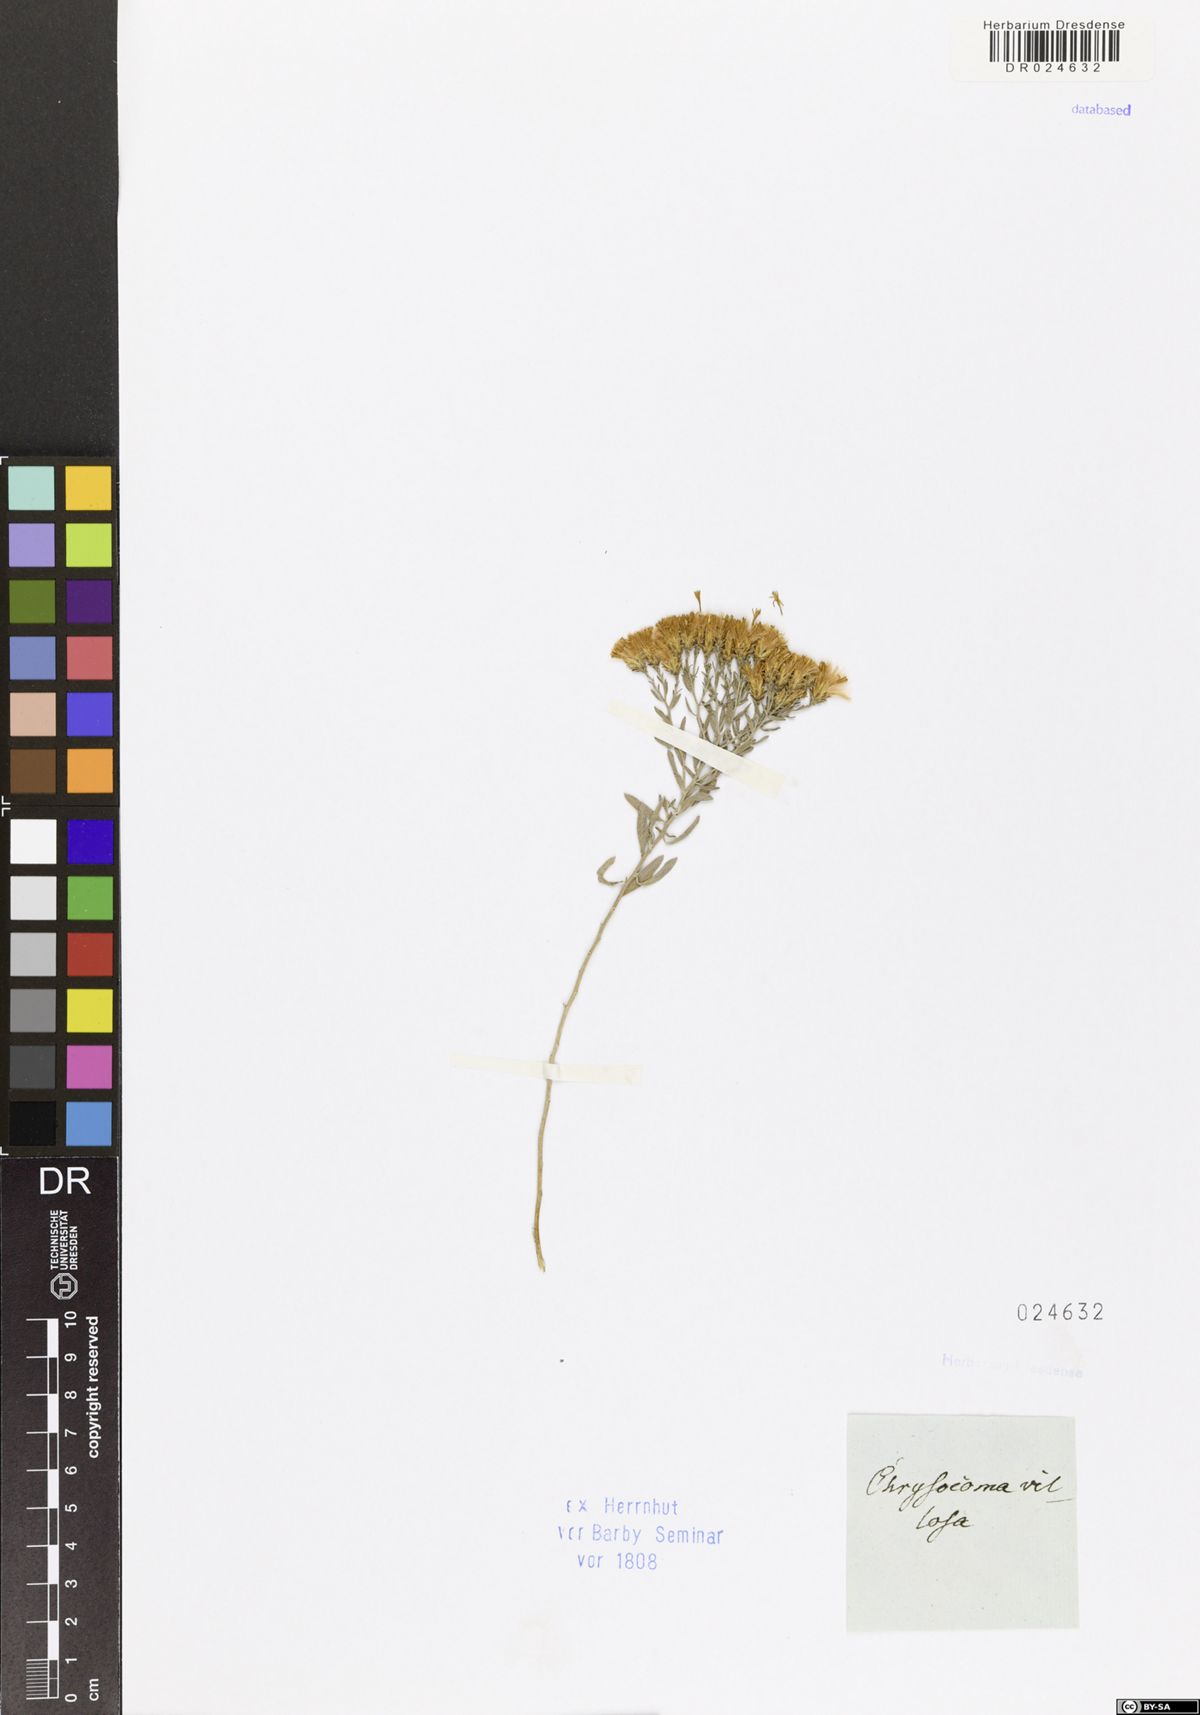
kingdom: Plantae
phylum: Tracheophyta
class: Magnoliopsida
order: Asterales
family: Asteraceae
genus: Galatella
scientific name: Galatella villosa
